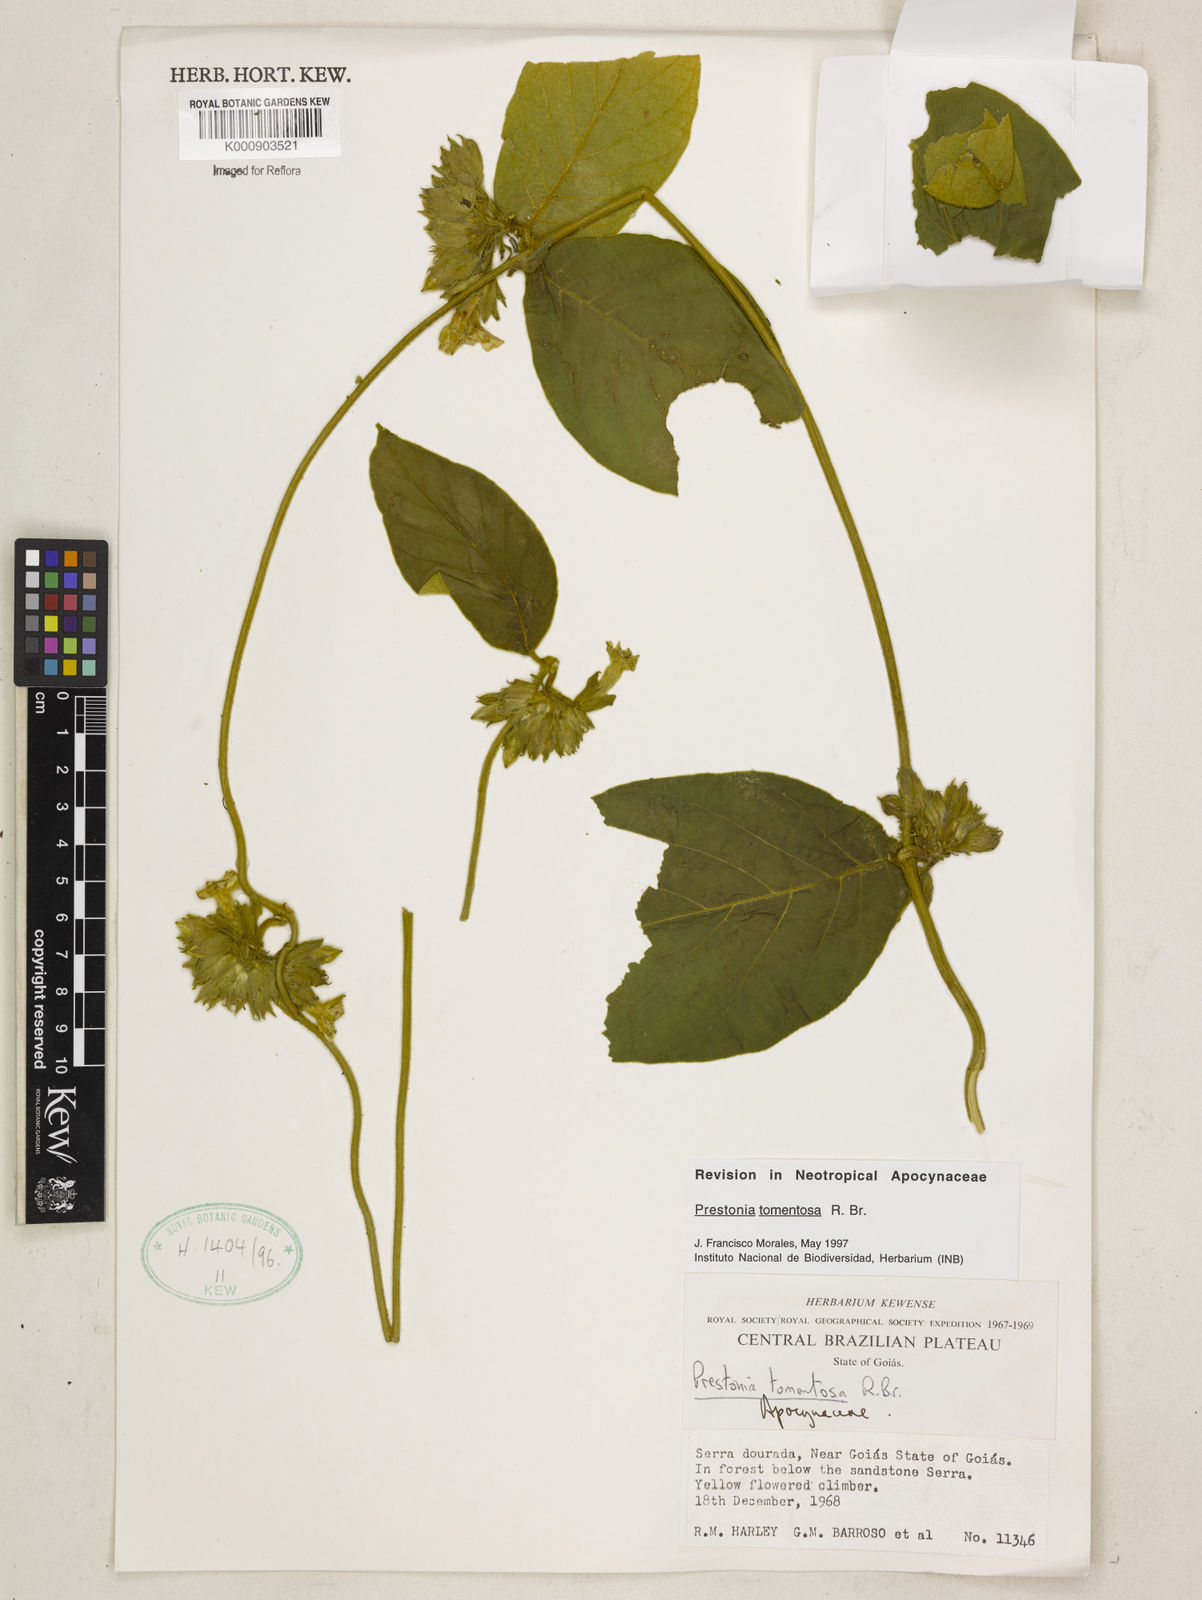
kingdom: Plantae
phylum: Tracheophyta
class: Magnoliopsida
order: Gentianales
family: Apocynaceae
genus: Prestonia
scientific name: Prestonia tomentosa
